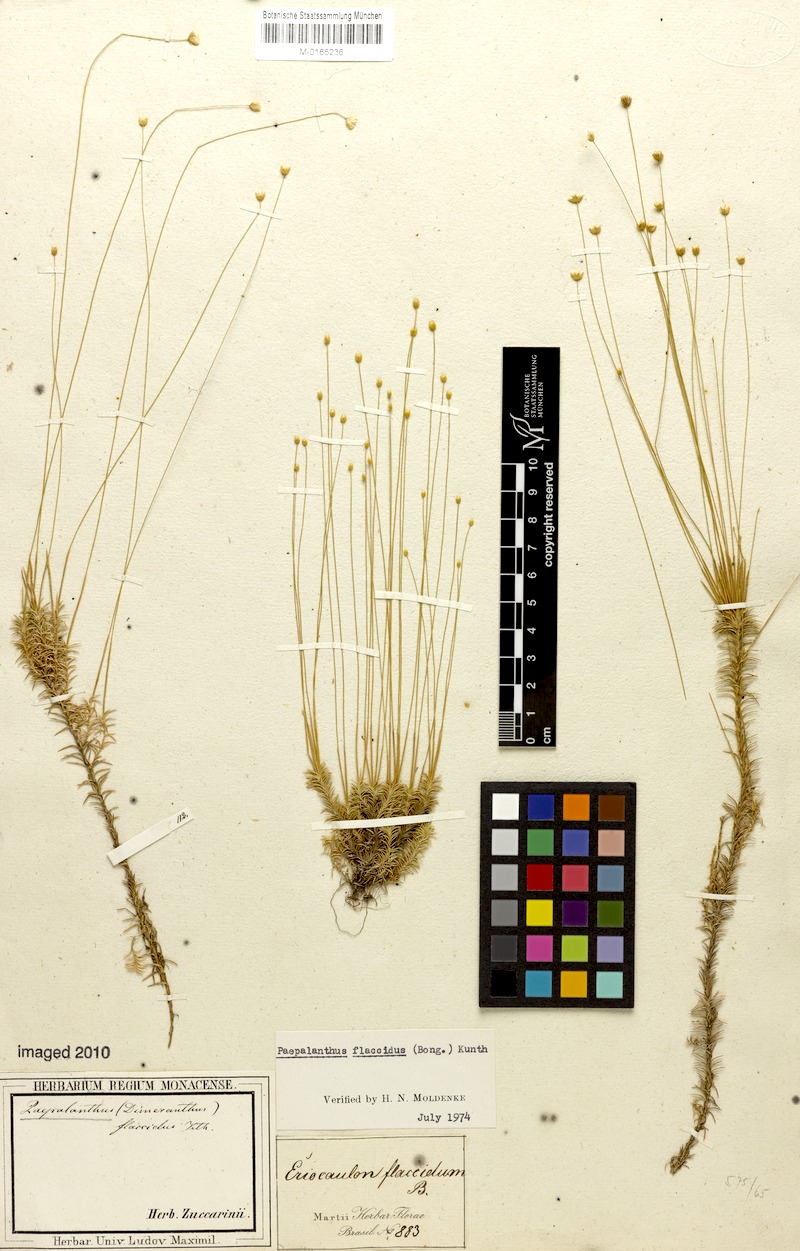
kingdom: Plantae
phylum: Tracheophyta
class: Liliopsida
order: Poales
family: Eriocaulaceae
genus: Paepalanthus
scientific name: Paepalanthus flaccidus
